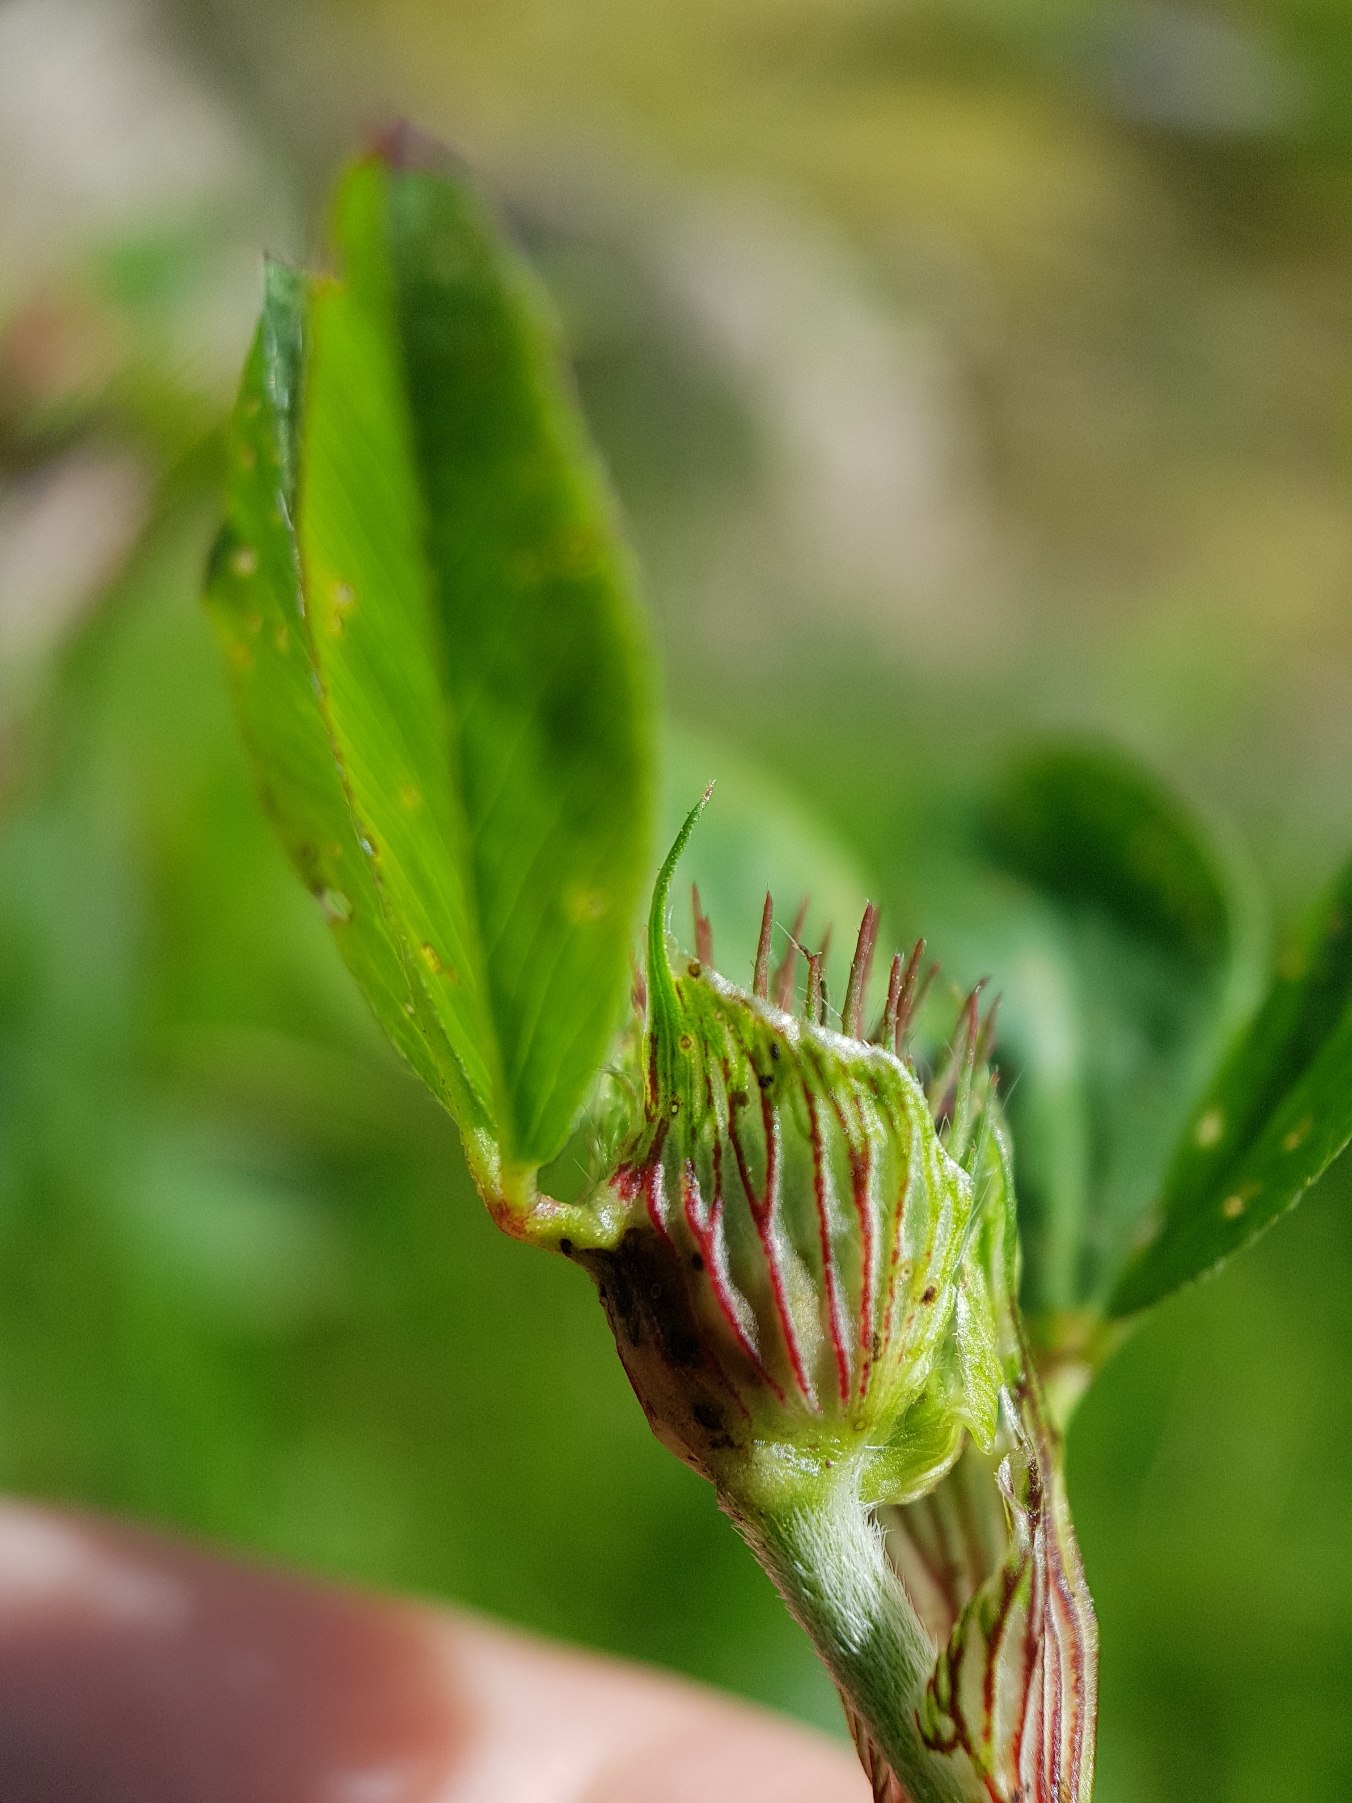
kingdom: Plantae
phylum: Tracheophyta
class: Magnoliopsida
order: Fabales
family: Fabaceae
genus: Trifolium
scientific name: Trifolium pratense
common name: Rød-kløver
